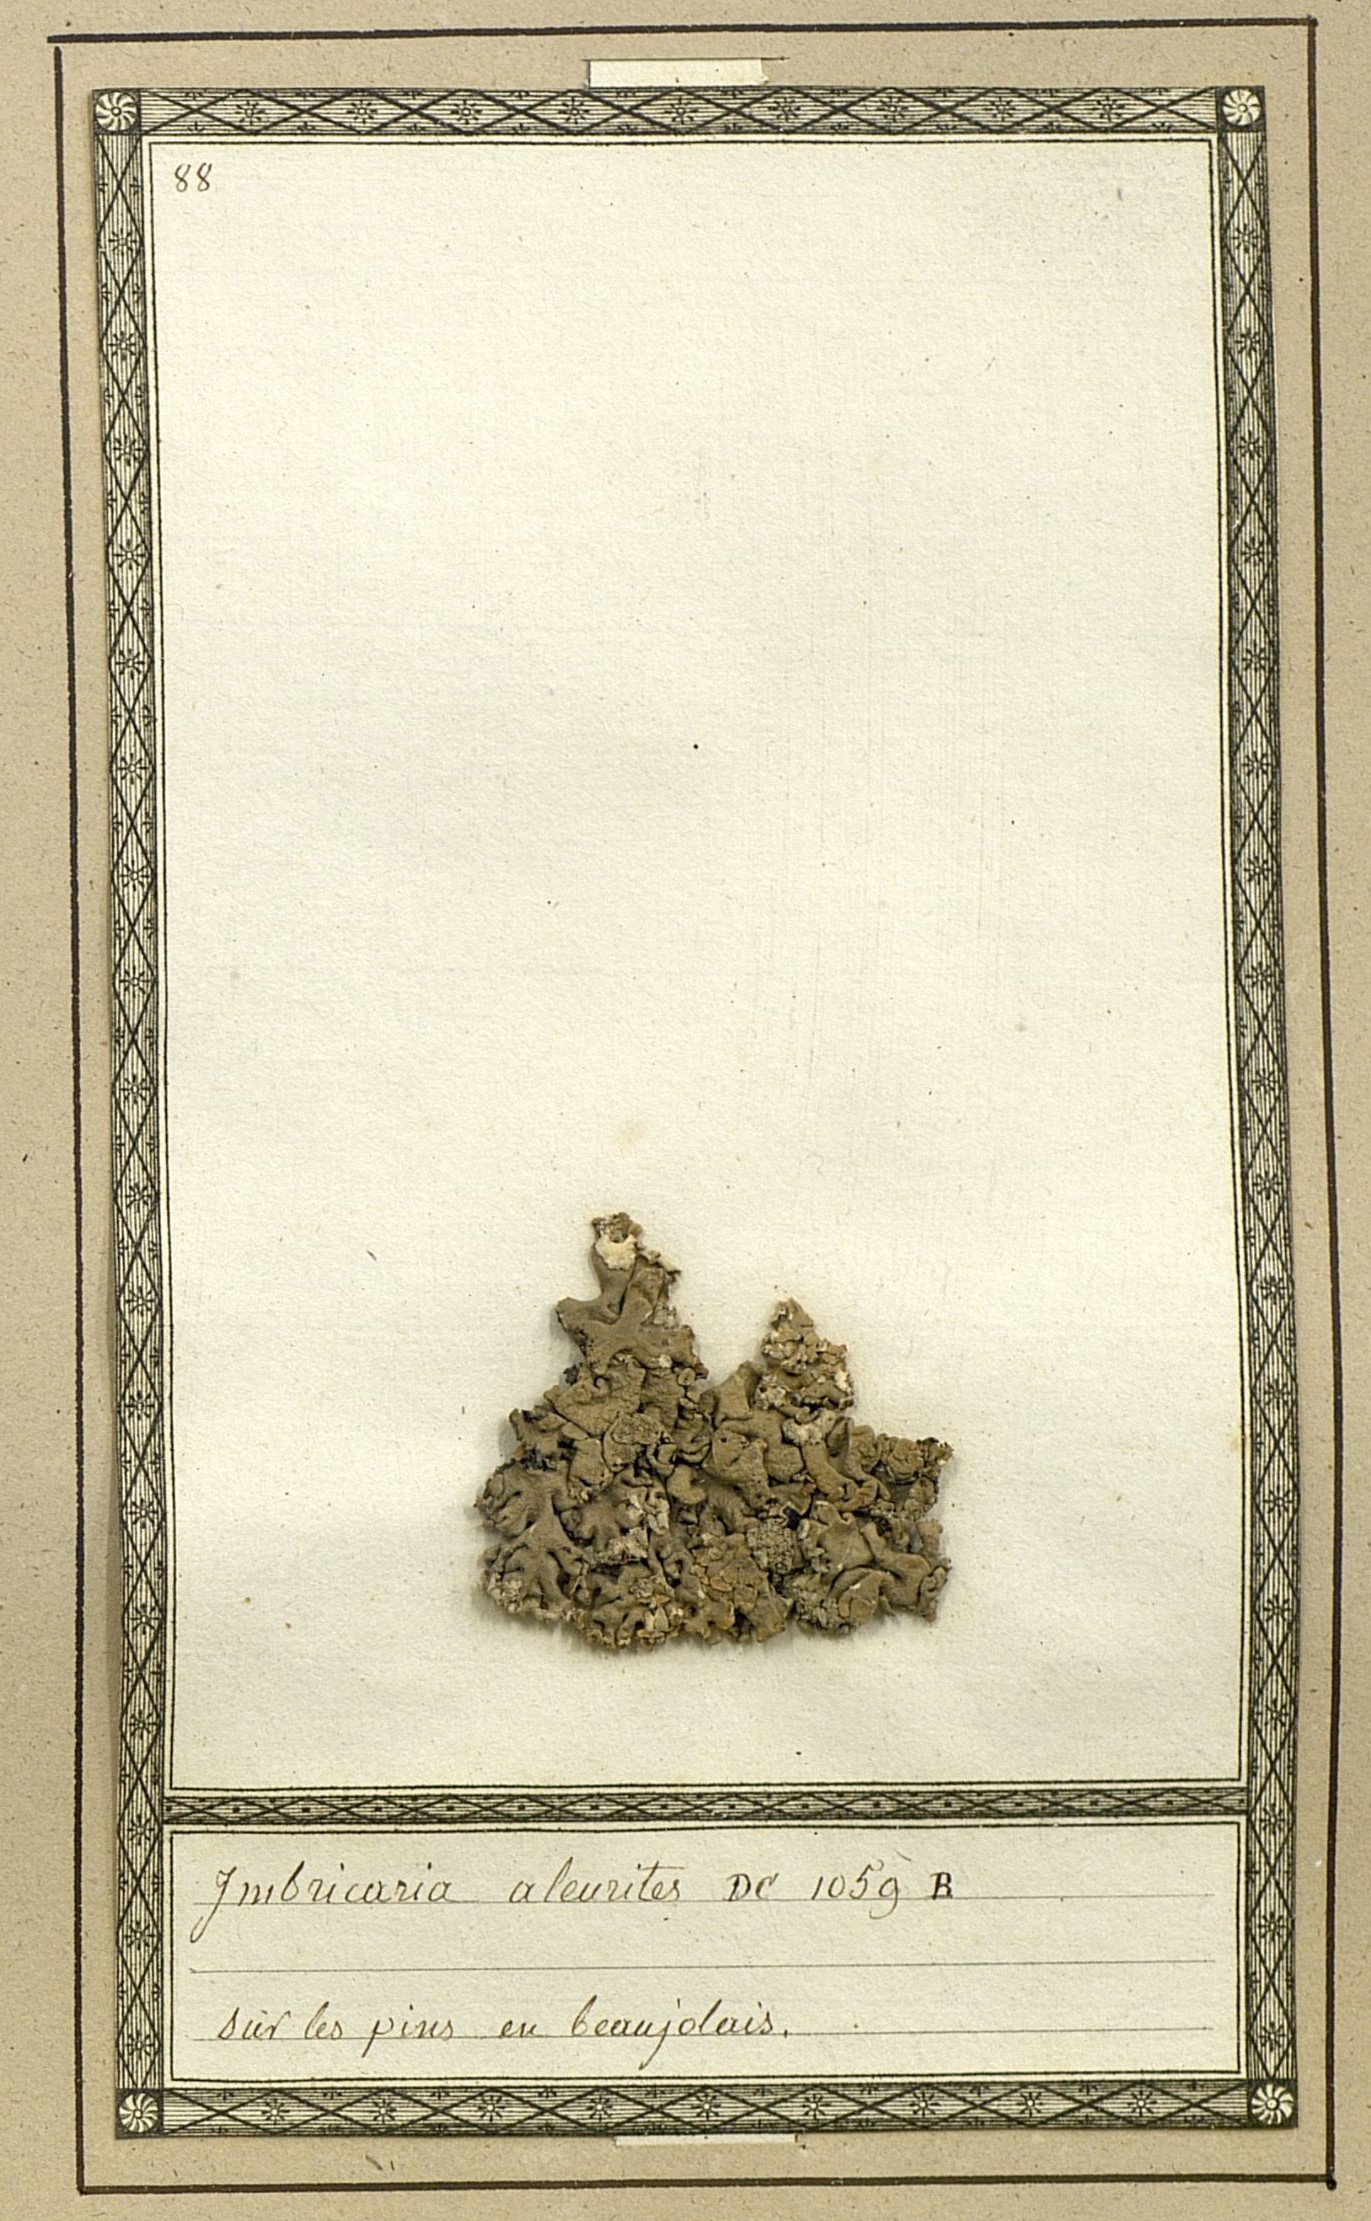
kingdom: Fungi
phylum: Ascomycota
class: Lecanoromycetes
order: Lecanorales
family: Parmeliaceae
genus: Imshaugia
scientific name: Imshaugia aleurites
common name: Salted starburst lichen
